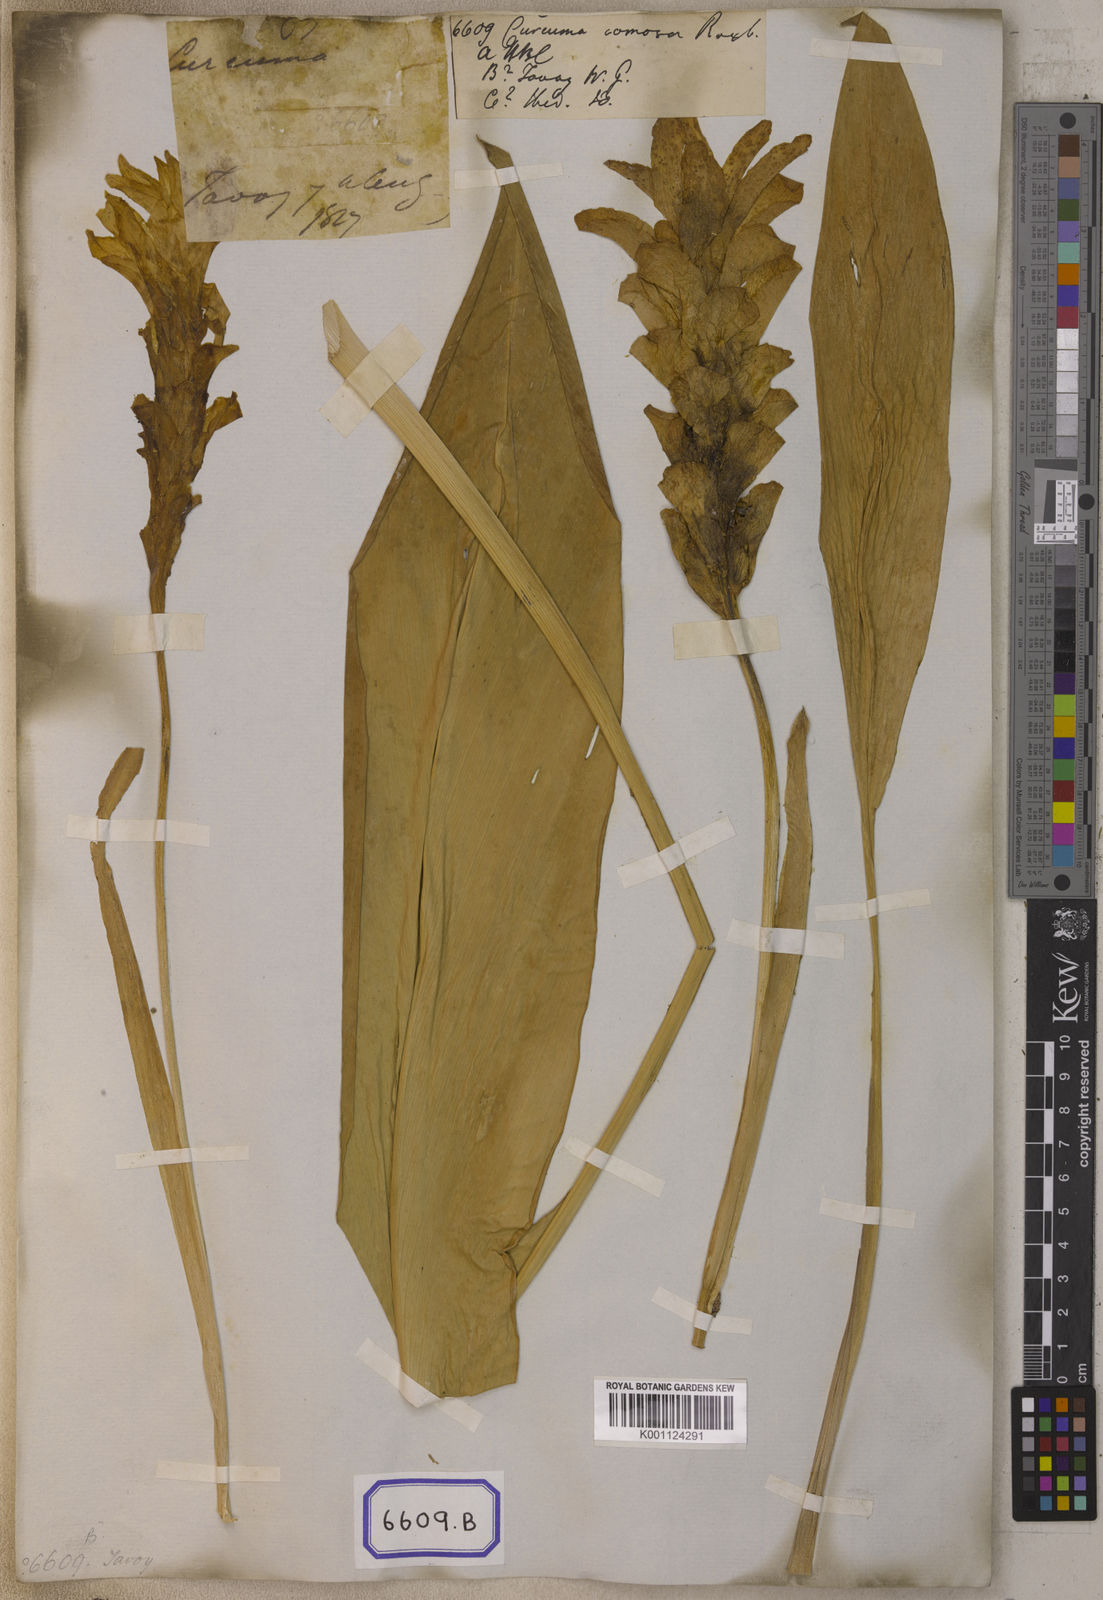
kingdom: Plantae
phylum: Tracheophyta
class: Liliopsida
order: Zingiberales
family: Zingiberaceae
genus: Curcuma
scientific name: Curcuma comosa
